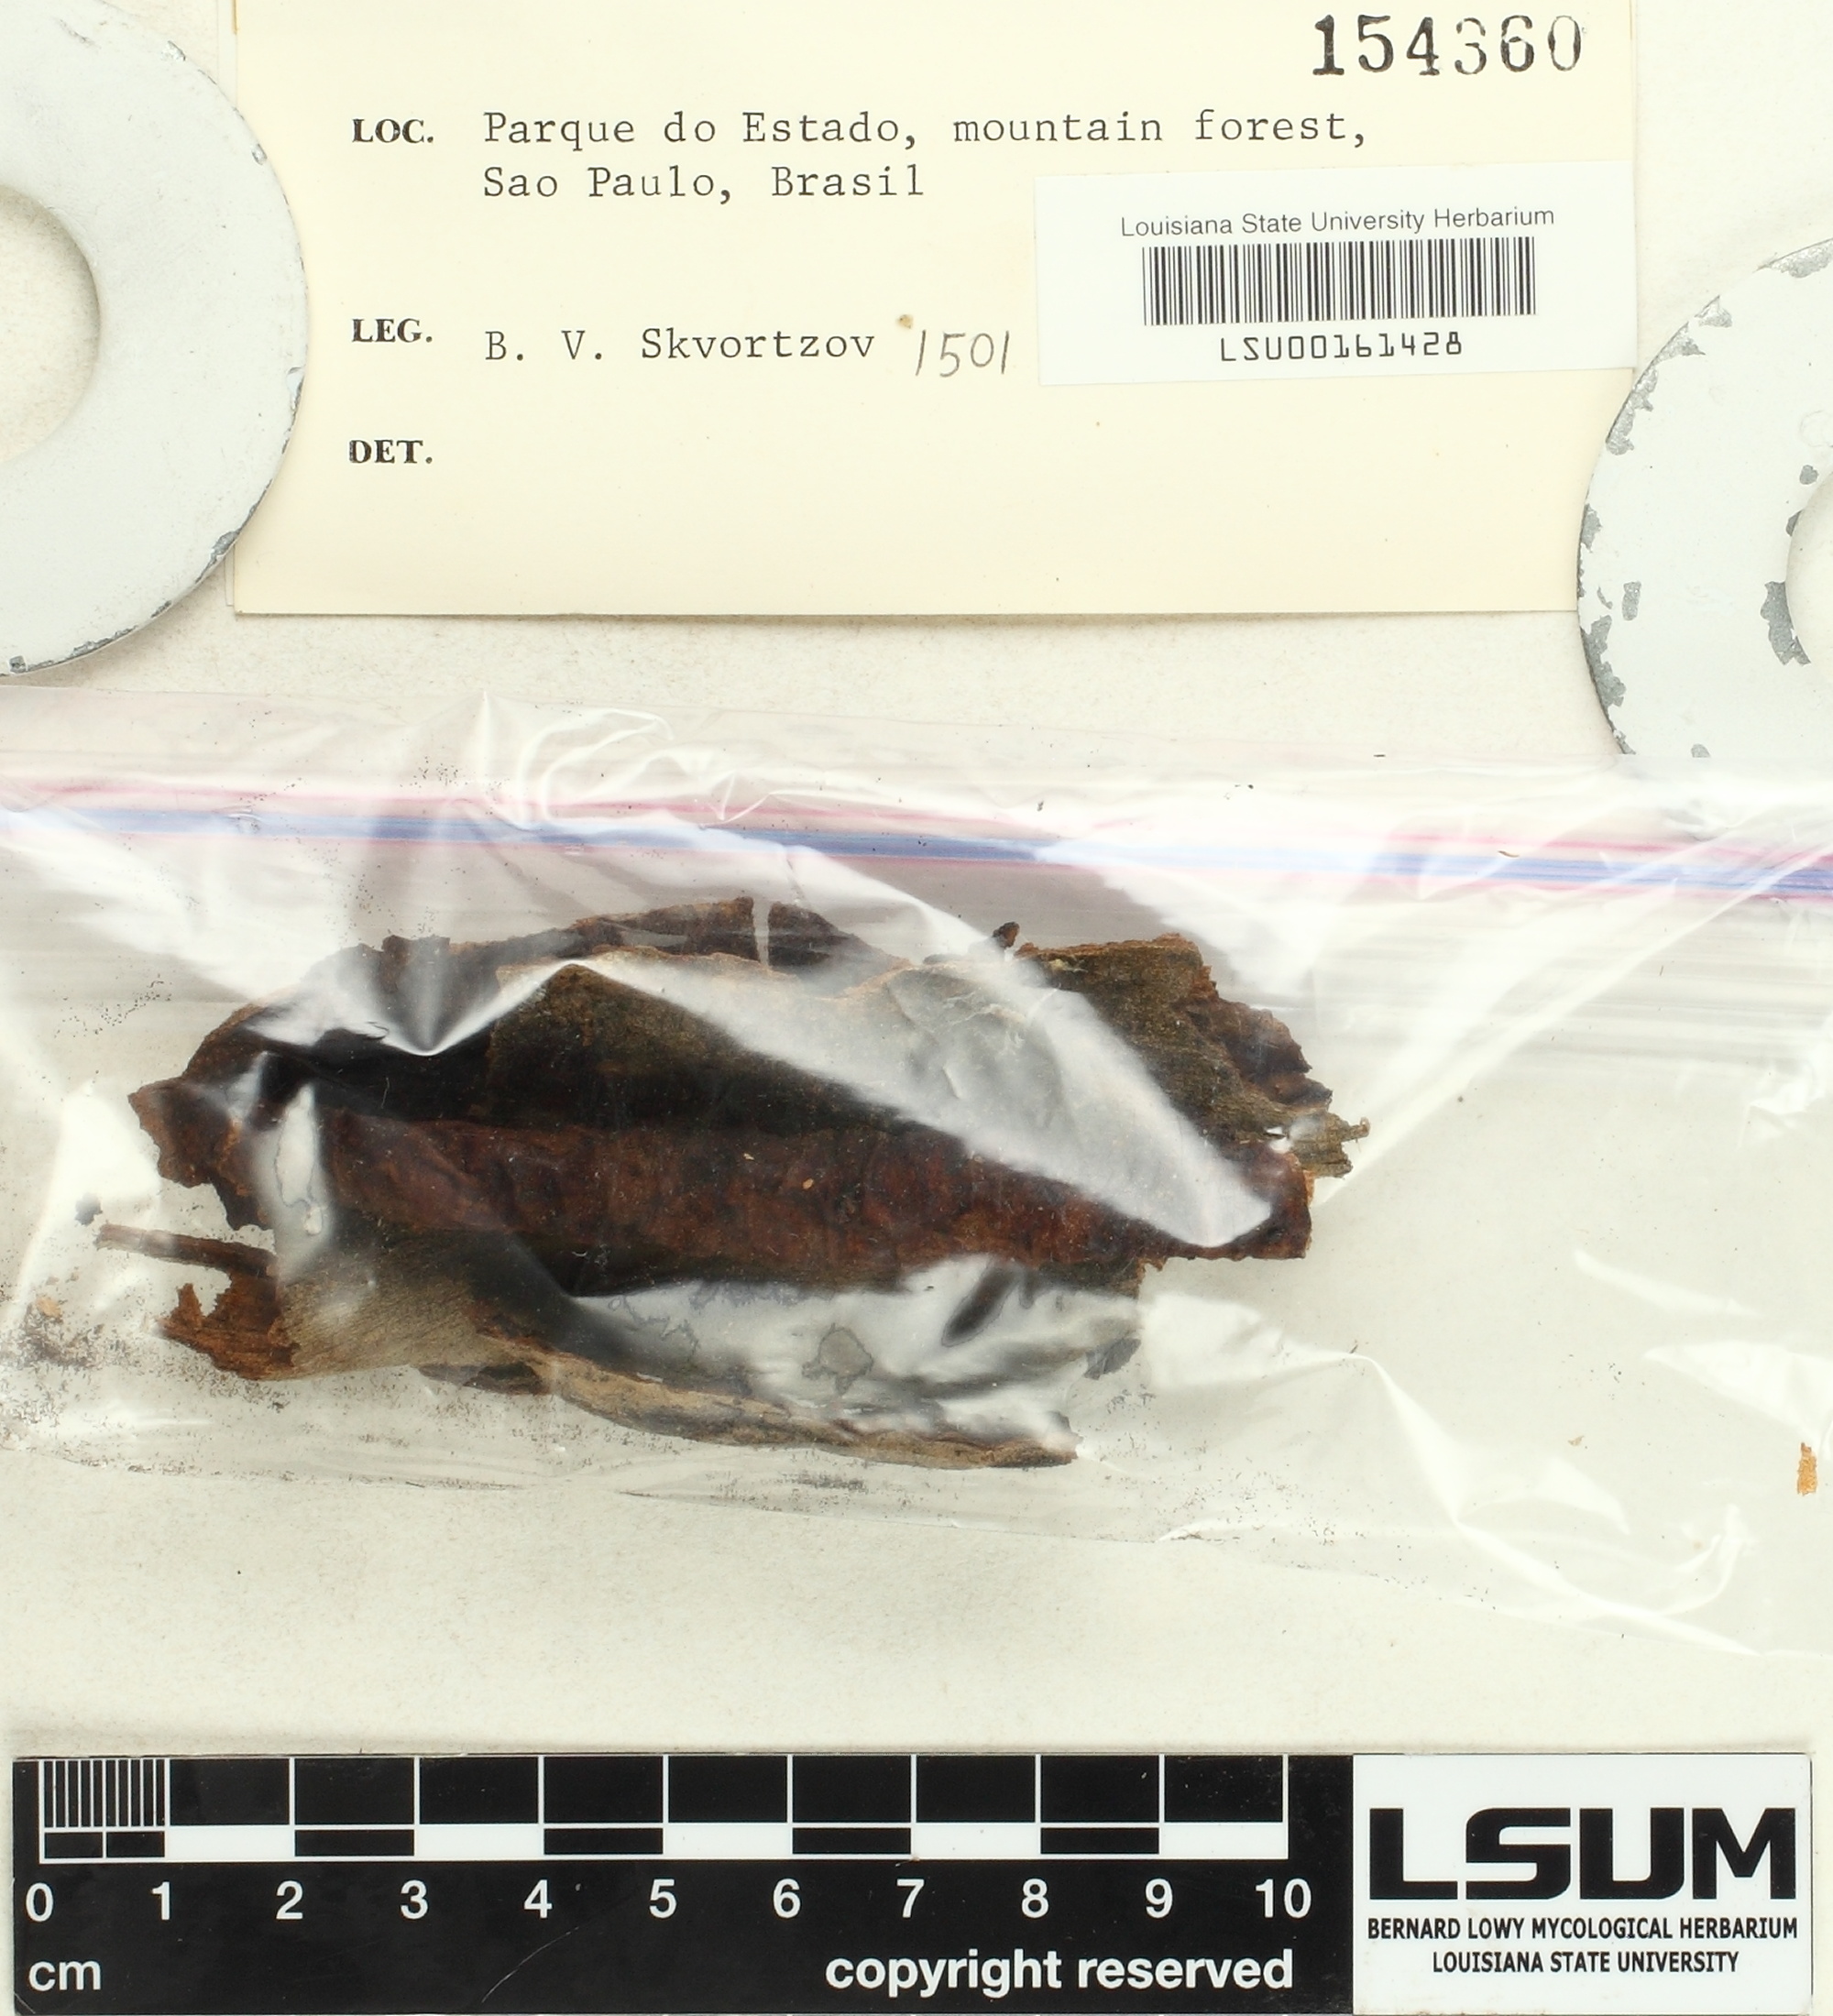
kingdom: Fungi
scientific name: Fungi
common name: Fungi
